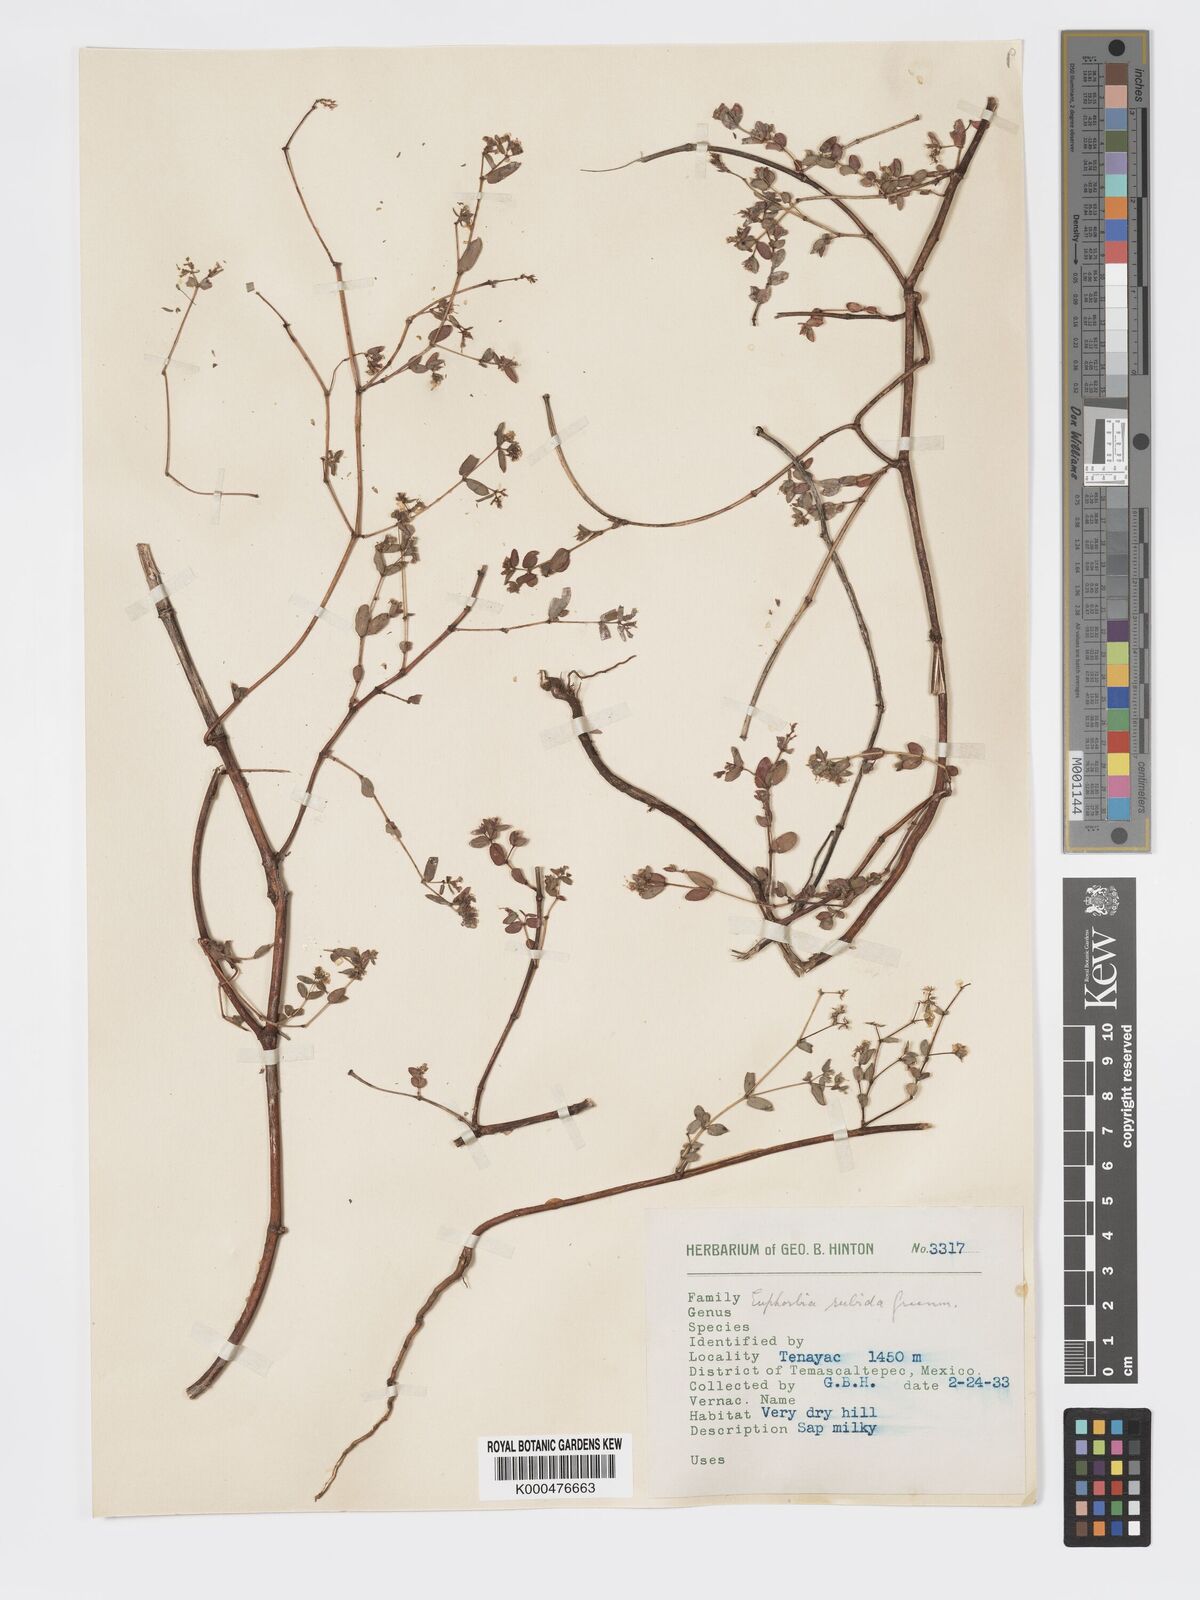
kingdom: Plantae
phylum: Tracheophyta
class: Magnoliopsida
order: Malpighiales
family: Euphorbiaceae
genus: Euphorbia
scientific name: Euphorbia anychioides
